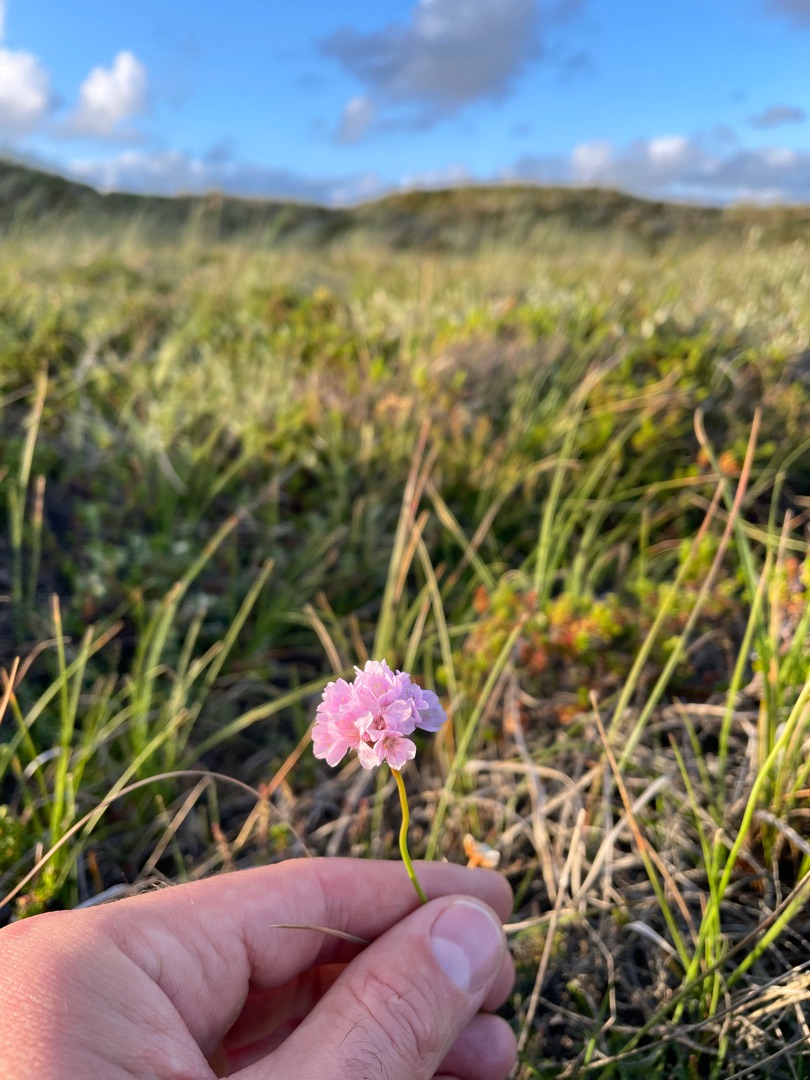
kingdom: Plantae
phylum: Tracheophyta
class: Magnoliopsida
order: Caryophyllales
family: Plumbaginaceae
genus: Armeria
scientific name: Armeria maritima
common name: Engelskgræs
